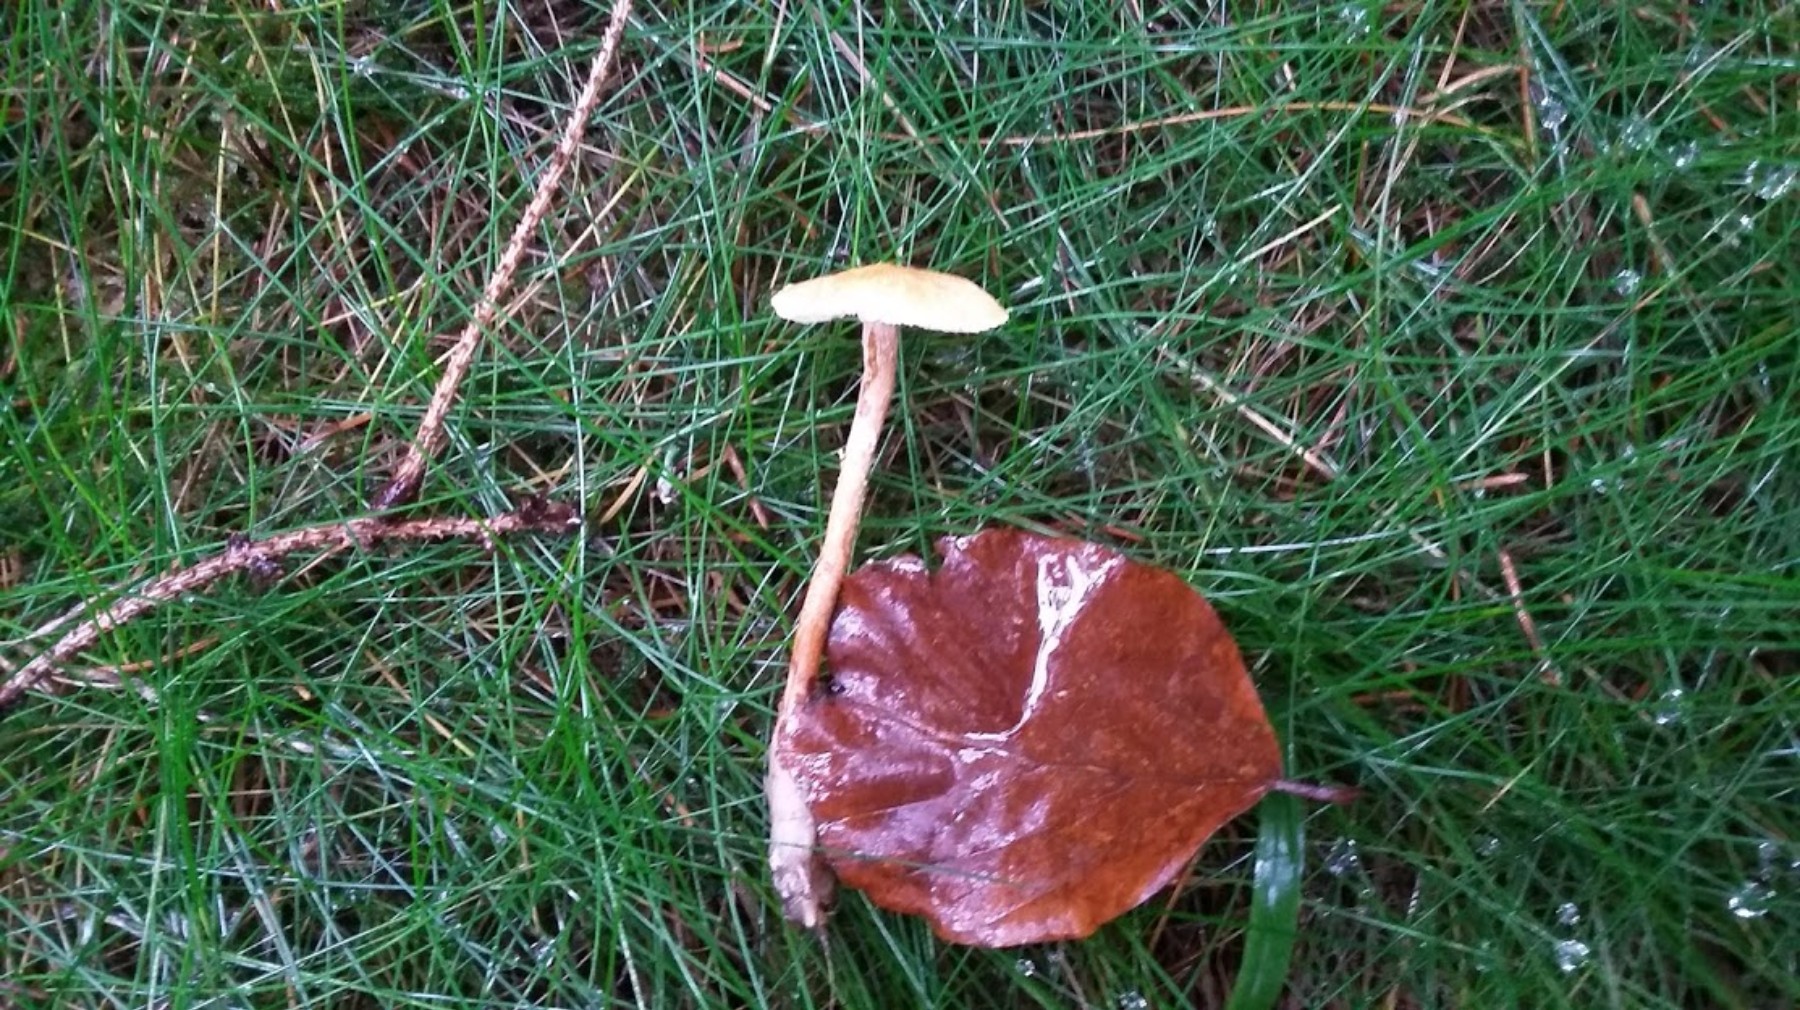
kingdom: Fungi
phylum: Basidiomycota
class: Agaricomycetes
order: Agaricales
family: Tricholomataceae
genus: Cystoderma
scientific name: Cystoderma amianthinum
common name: okkergul grynhat
